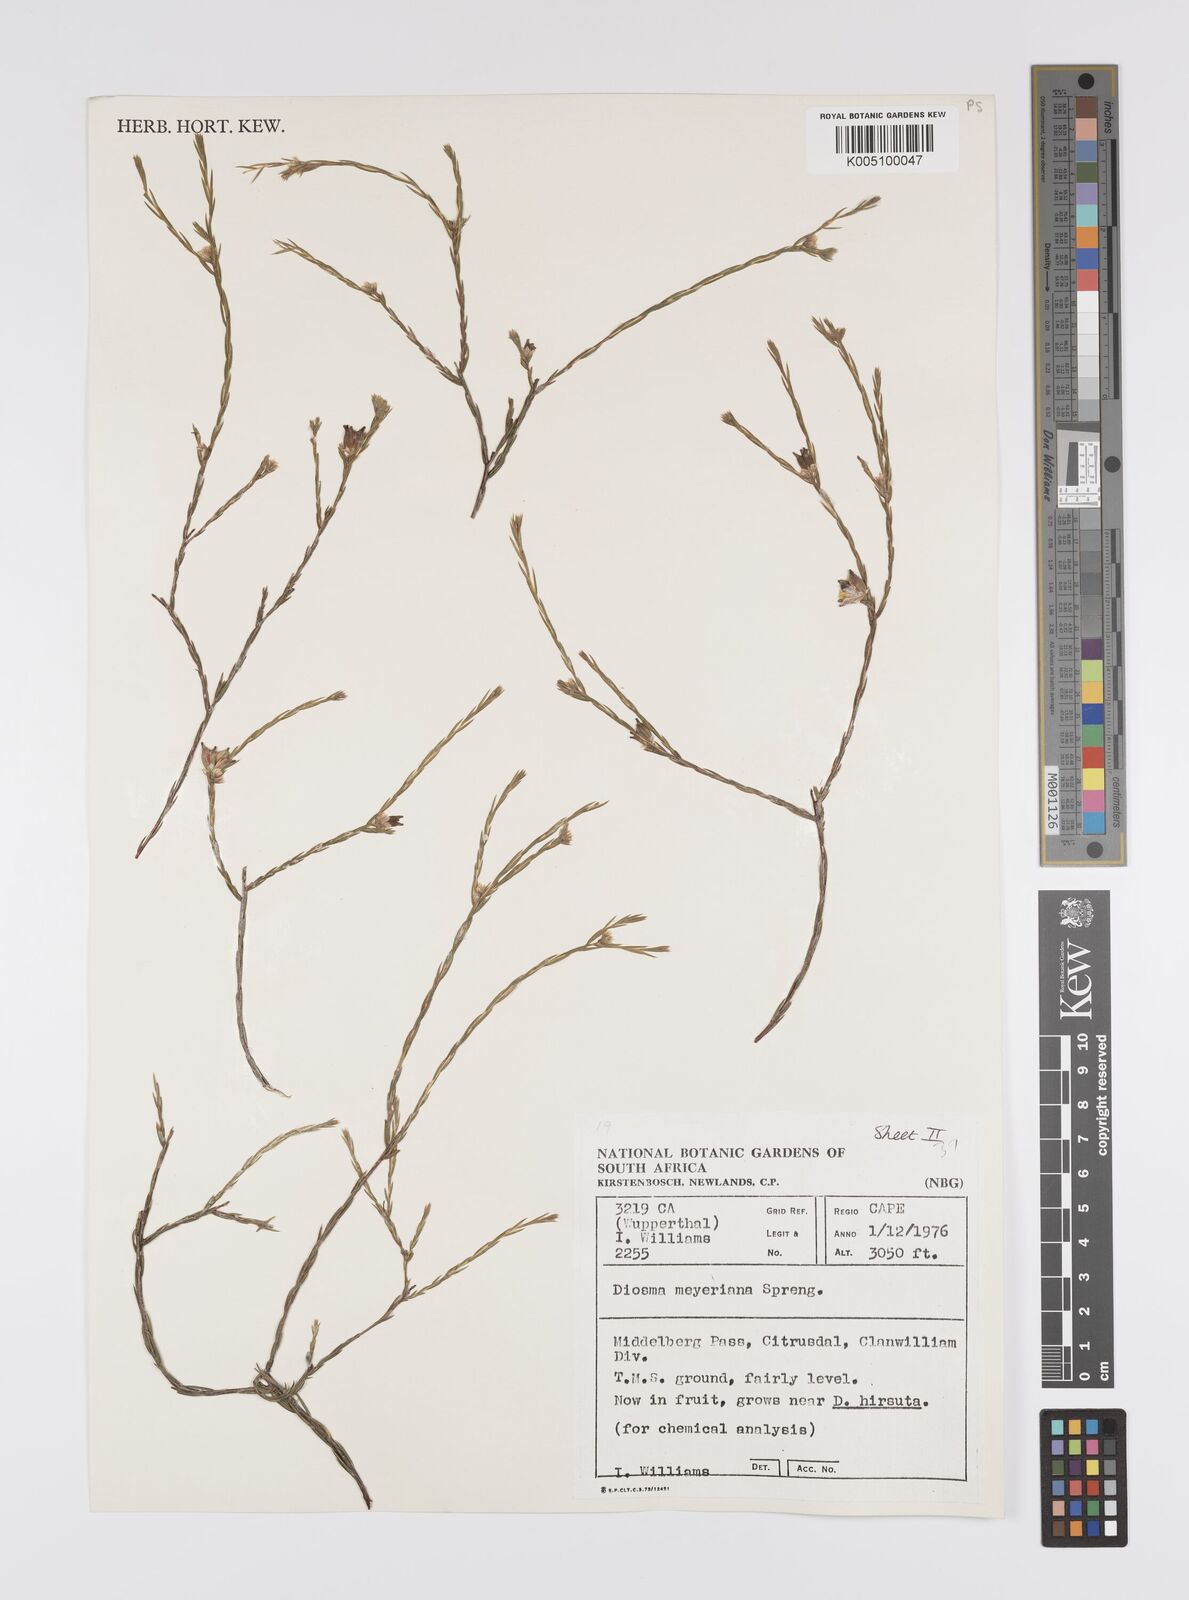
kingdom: Plantae
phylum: Tracheophyta
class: Magnoliopsida
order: Sapindales
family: Rutaceae
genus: Agathosma
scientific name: Agathosma virgata
